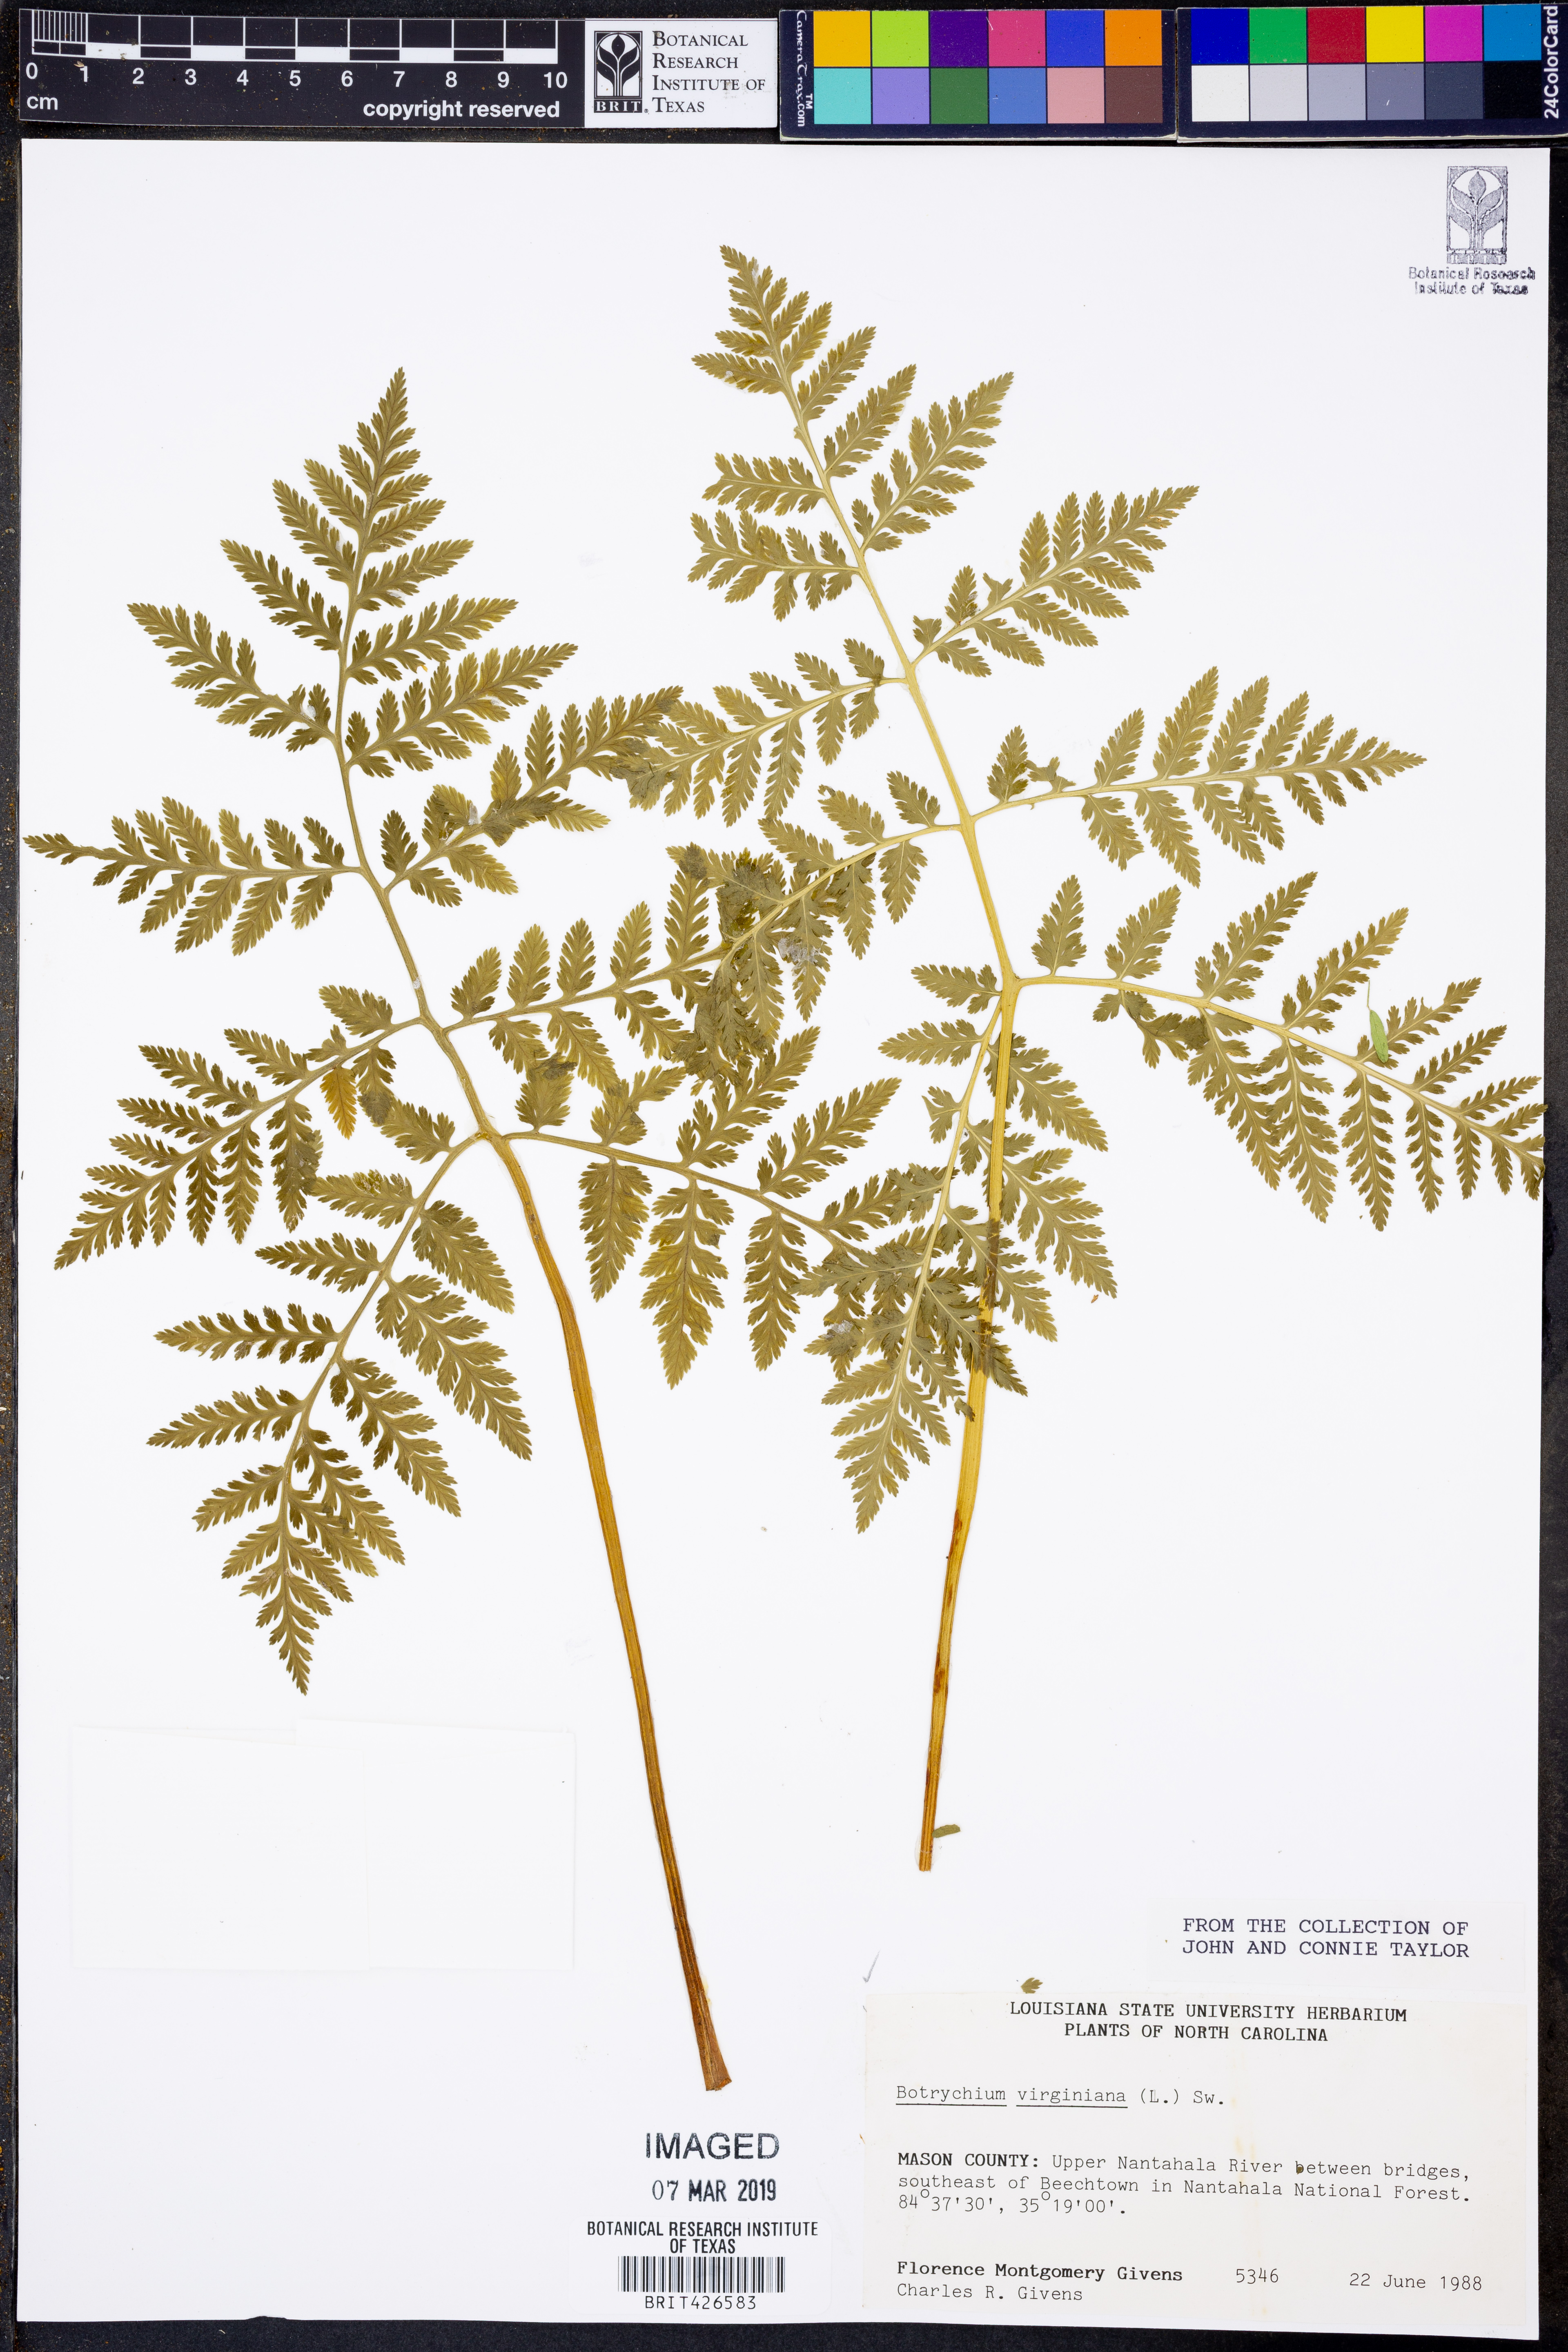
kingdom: Plantae
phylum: Tracheophyta
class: Polypodiopsida
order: Ophioglossales
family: Ophioglossaceae
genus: Botrypus
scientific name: Botrypus virginianus
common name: Common grapefern
